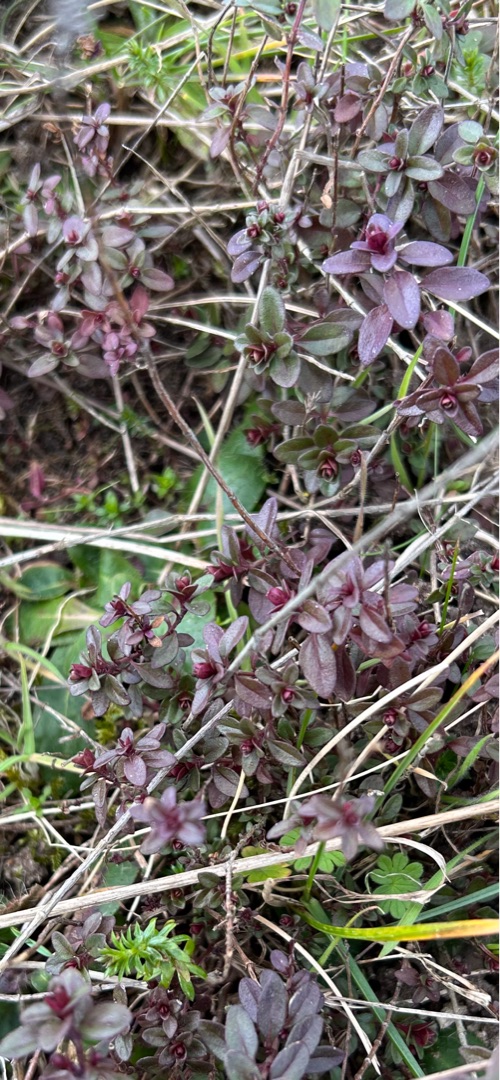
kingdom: Plantae
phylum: Tracheophyta
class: Magnoliopsida
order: Lamiales
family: Lamiaceae
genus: Thymus
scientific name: Thymus pulegioides
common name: Bredbladet timian
